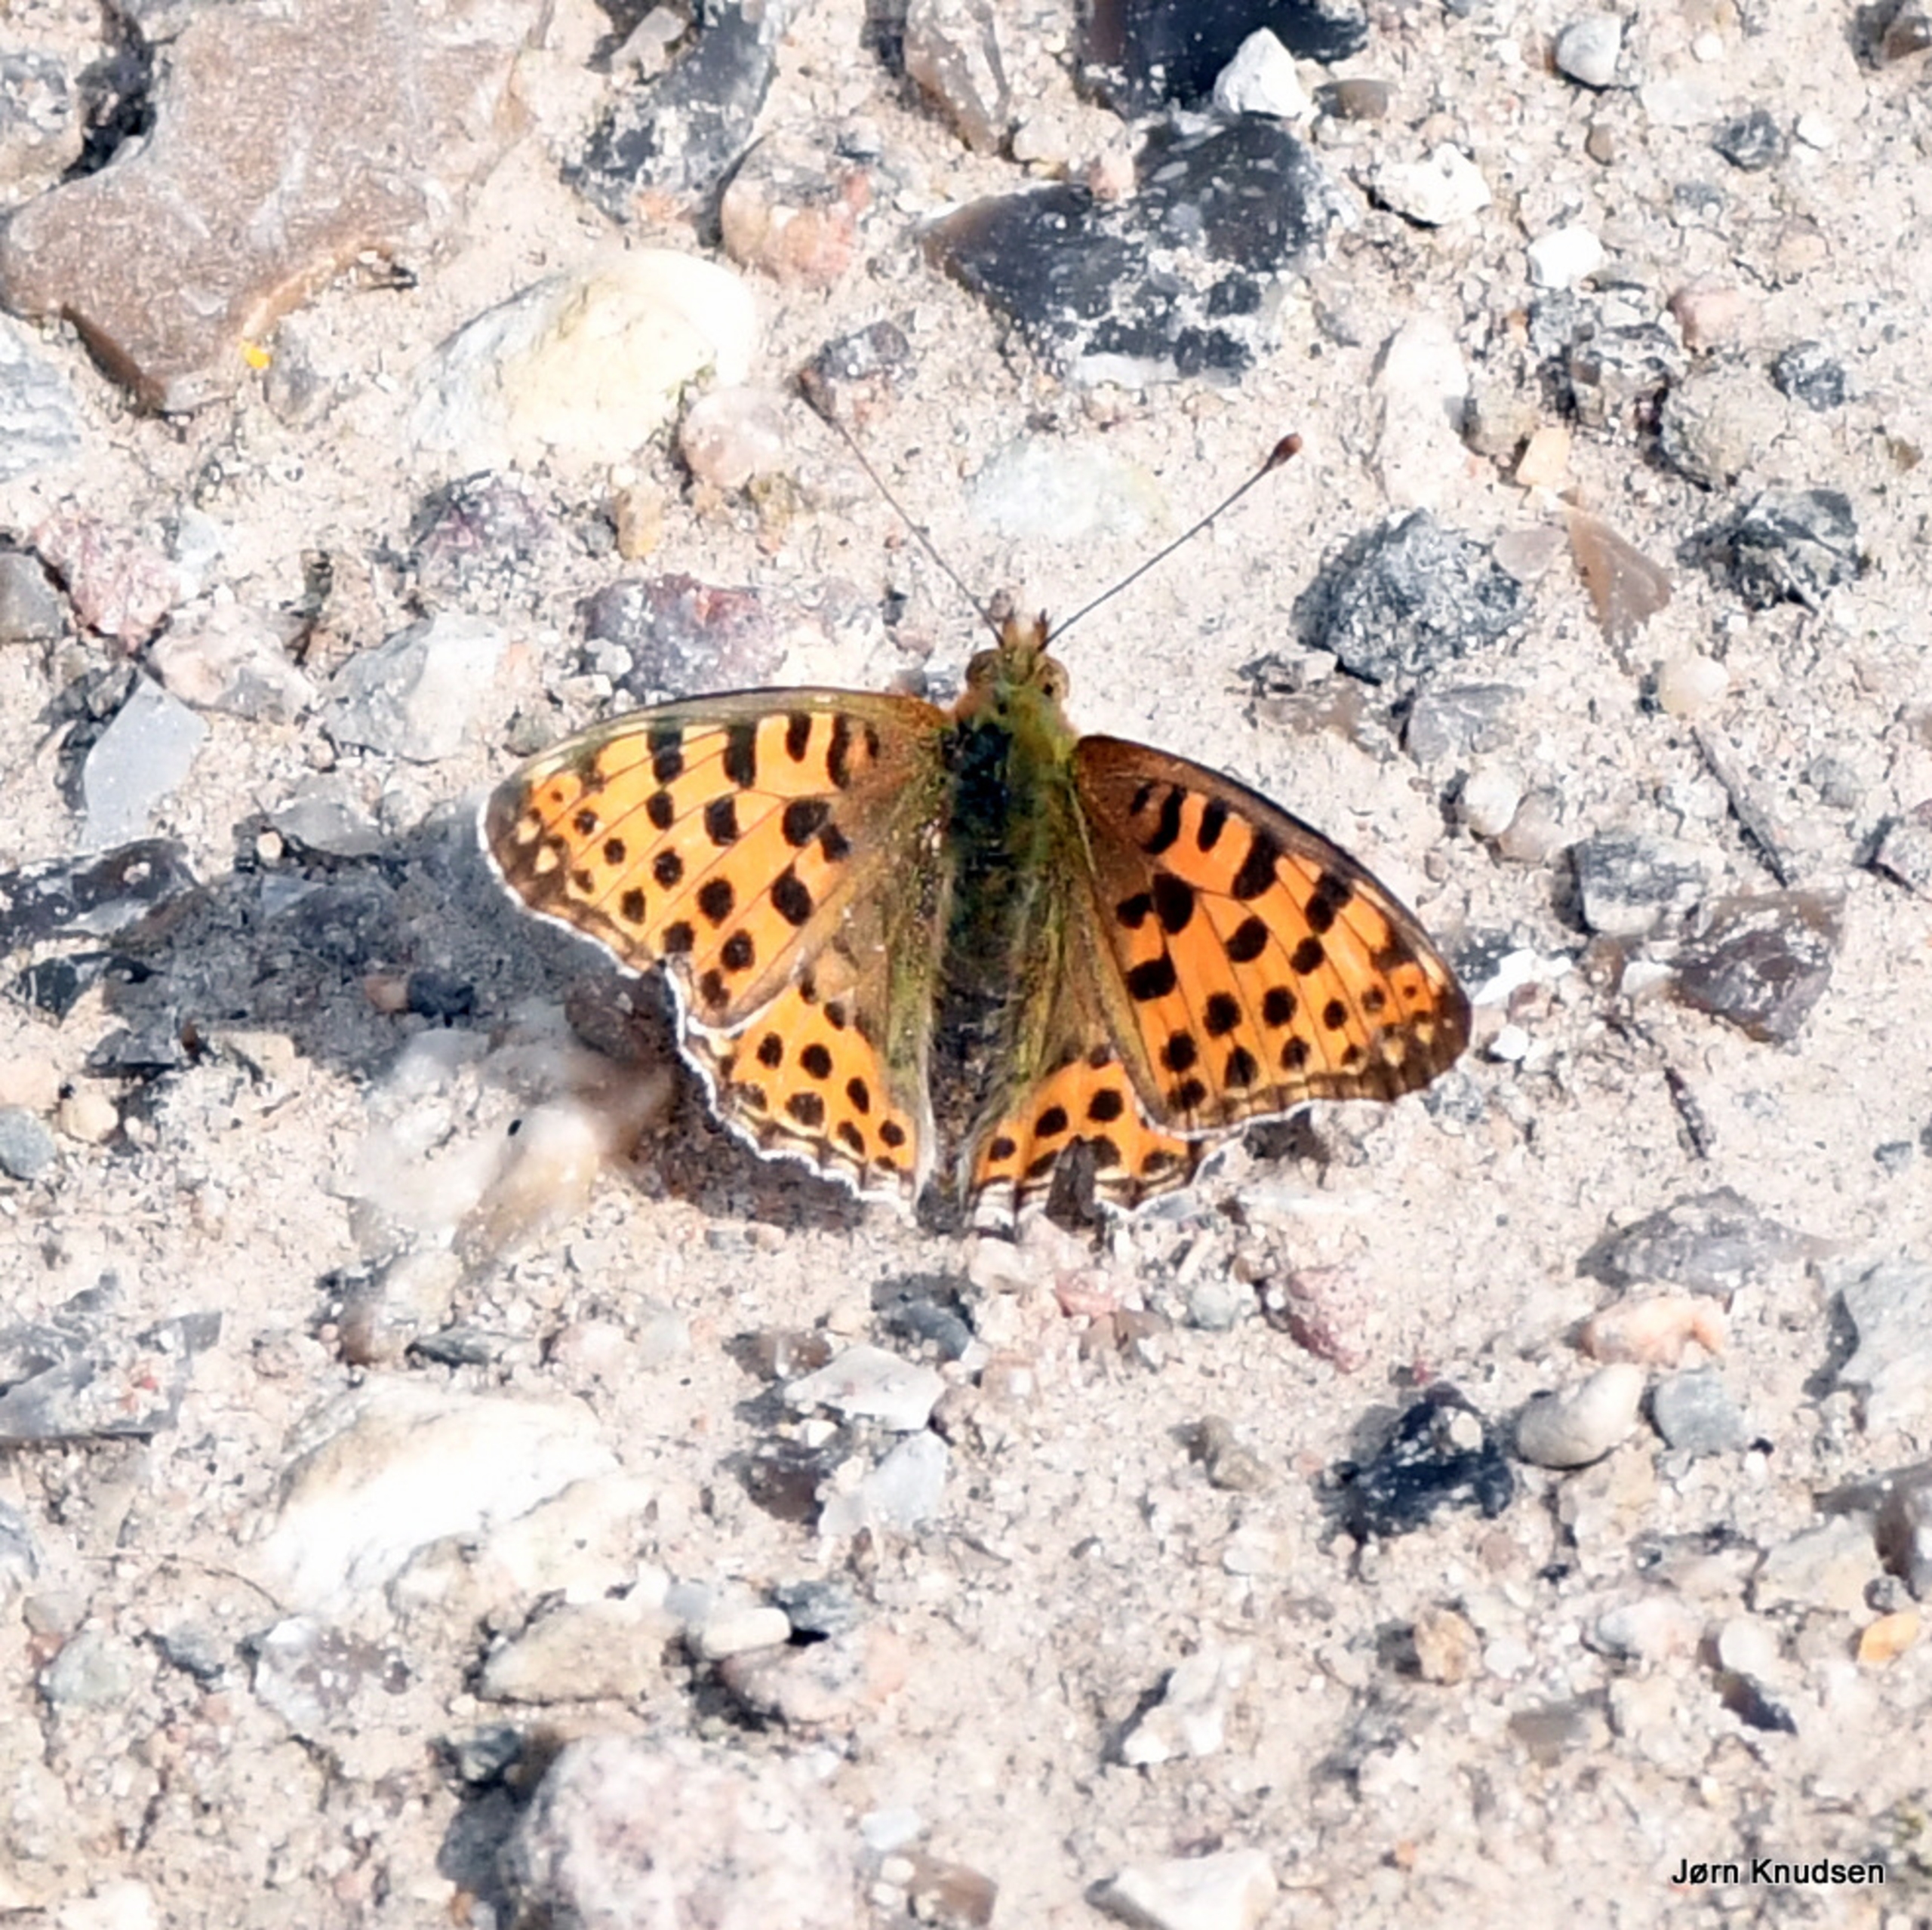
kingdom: Animalia
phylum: Arthropoda
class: Insecta
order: Lepidoptera
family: Nymphalidae
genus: Issoria
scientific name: Issoria lathonia
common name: Storplettet perlemorsommerfugl
